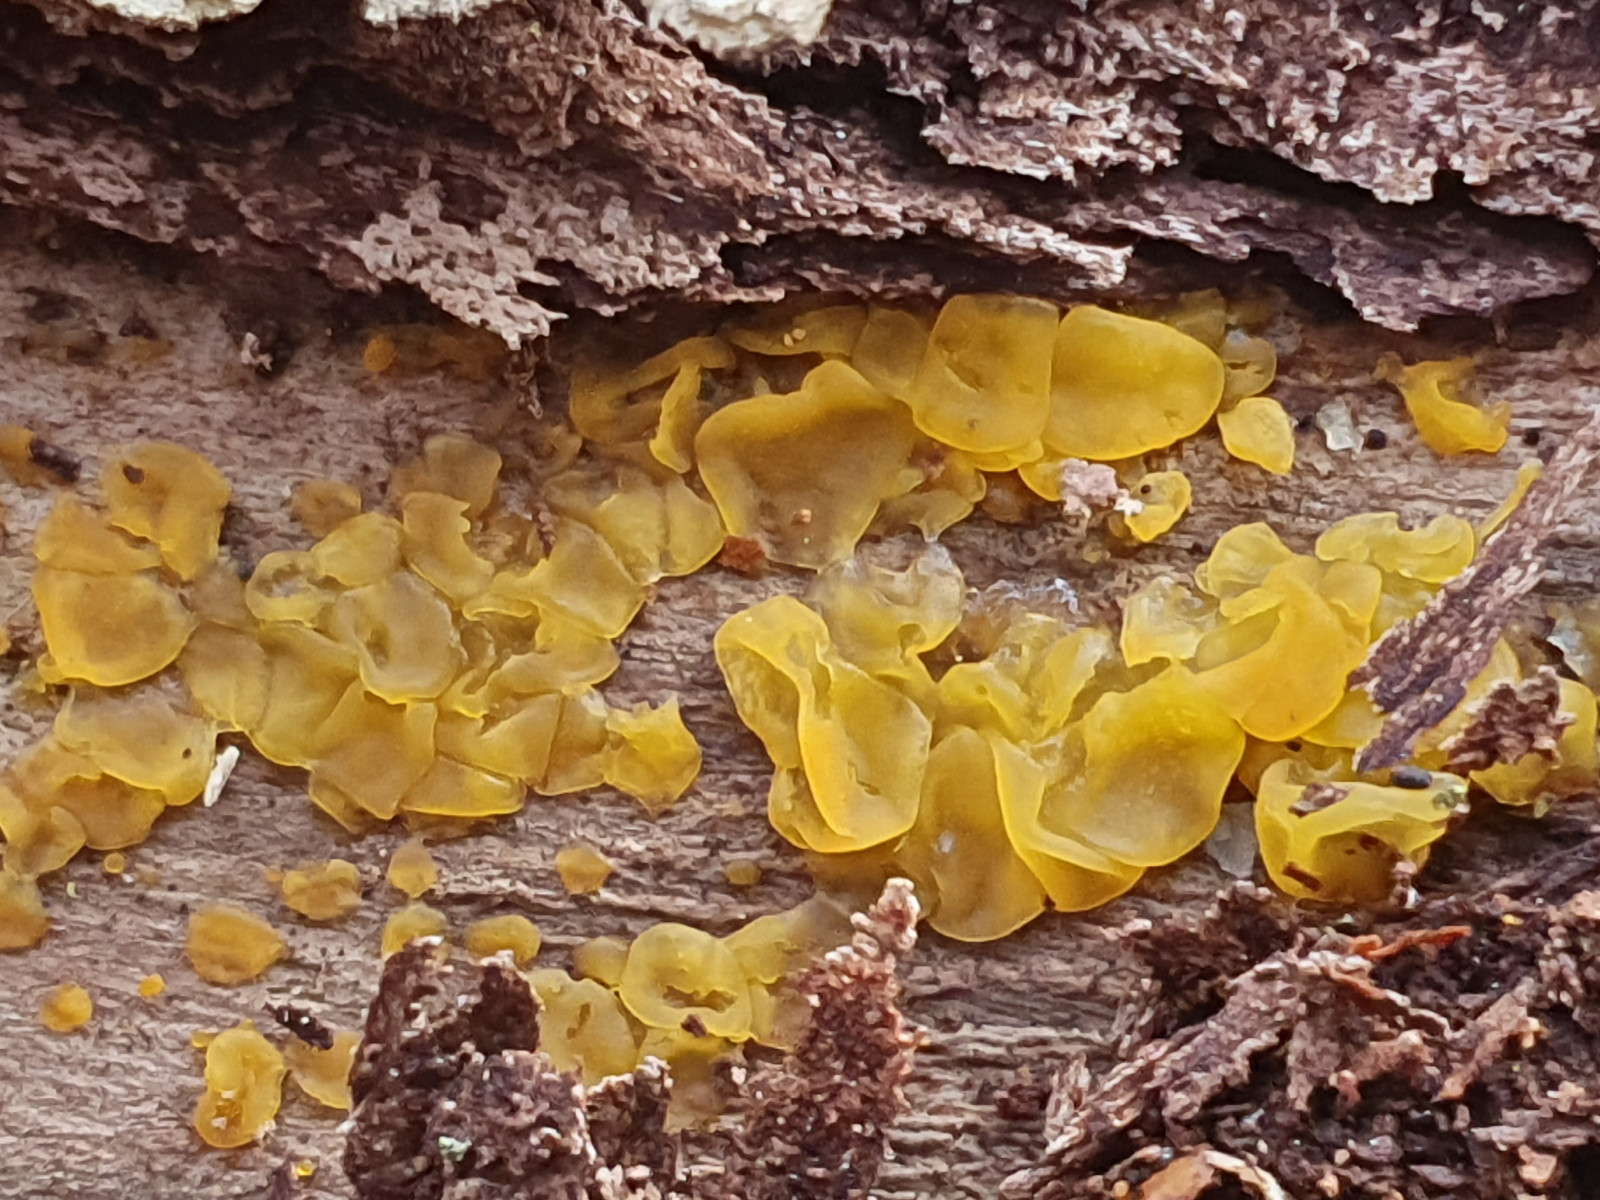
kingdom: Fungi
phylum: Basidiomycota
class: Tremellomycetes
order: Tremellales
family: Tremellaceae
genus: Tremella
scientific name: Tremella mesenterica
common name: gul bævresvamp
